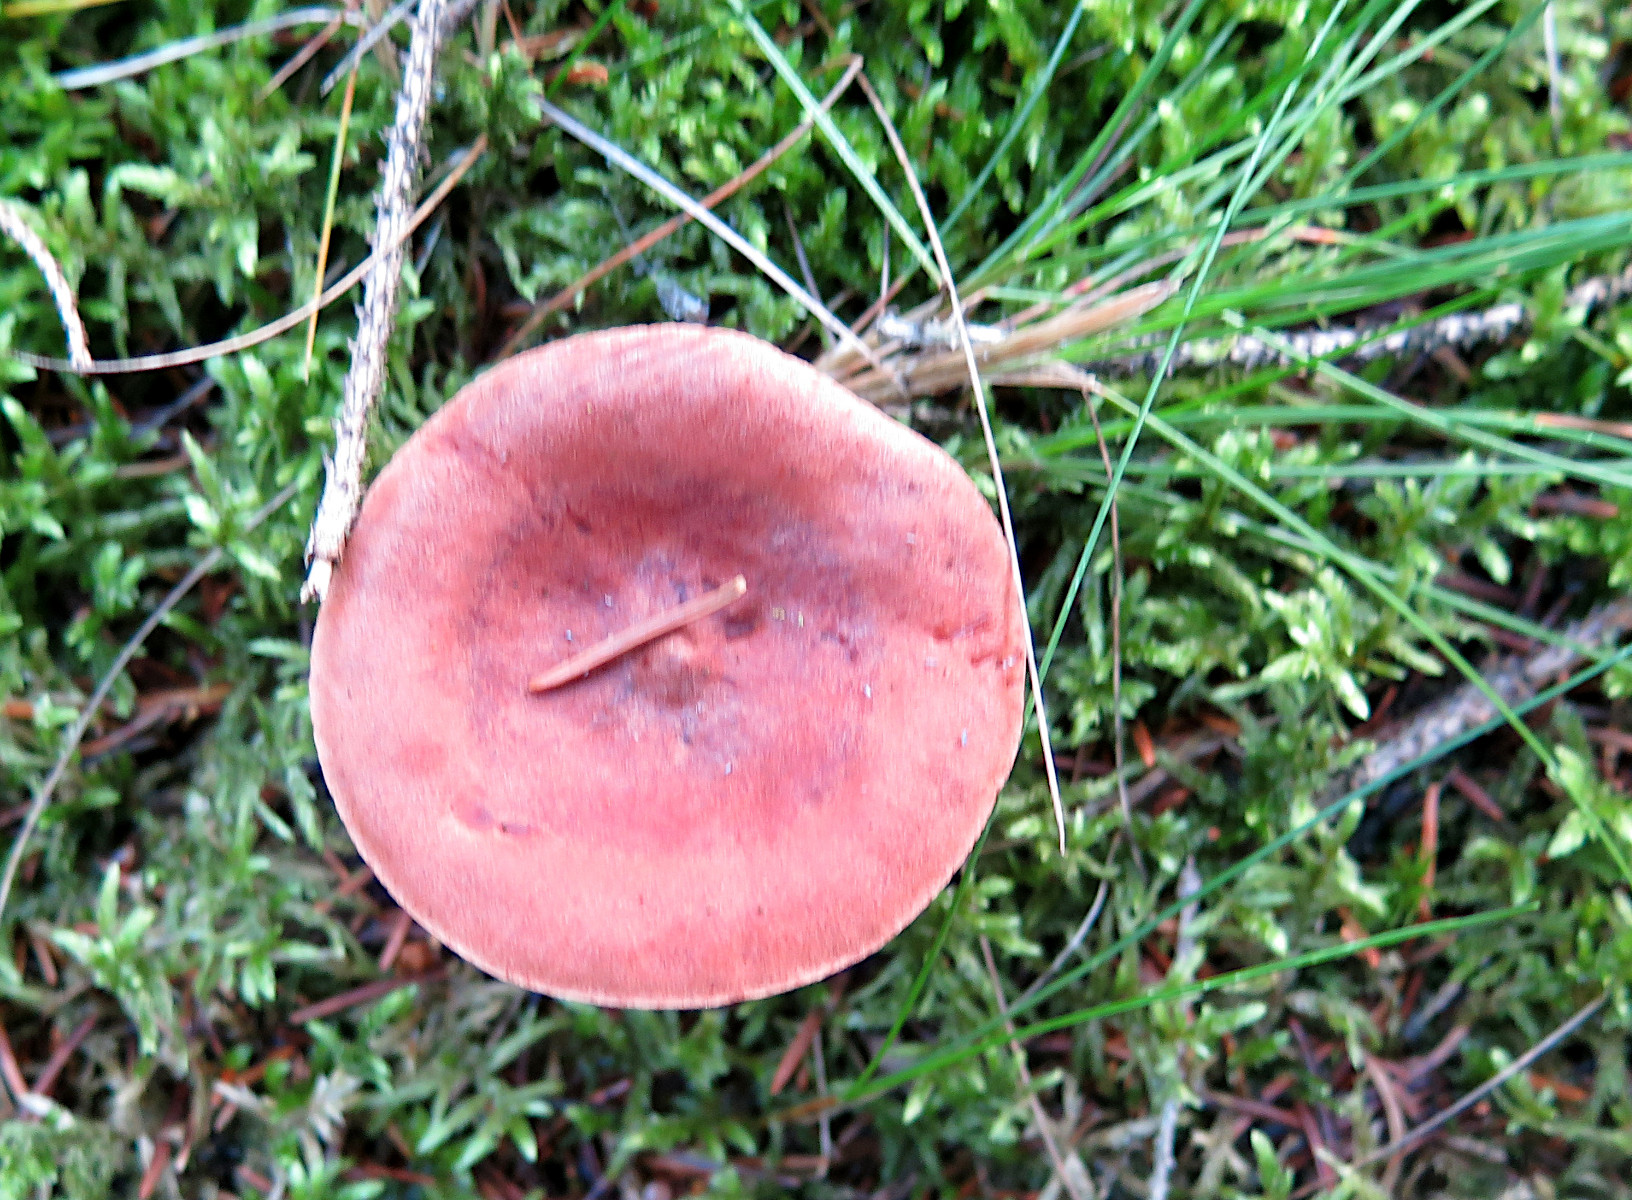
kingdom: Fungi
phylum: Basidiomycota
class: Agaricomycetes
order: Russulales
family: Russulaceae
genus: Lactarius
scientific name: Lactarius rufus
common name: rødbrun mælkehat
